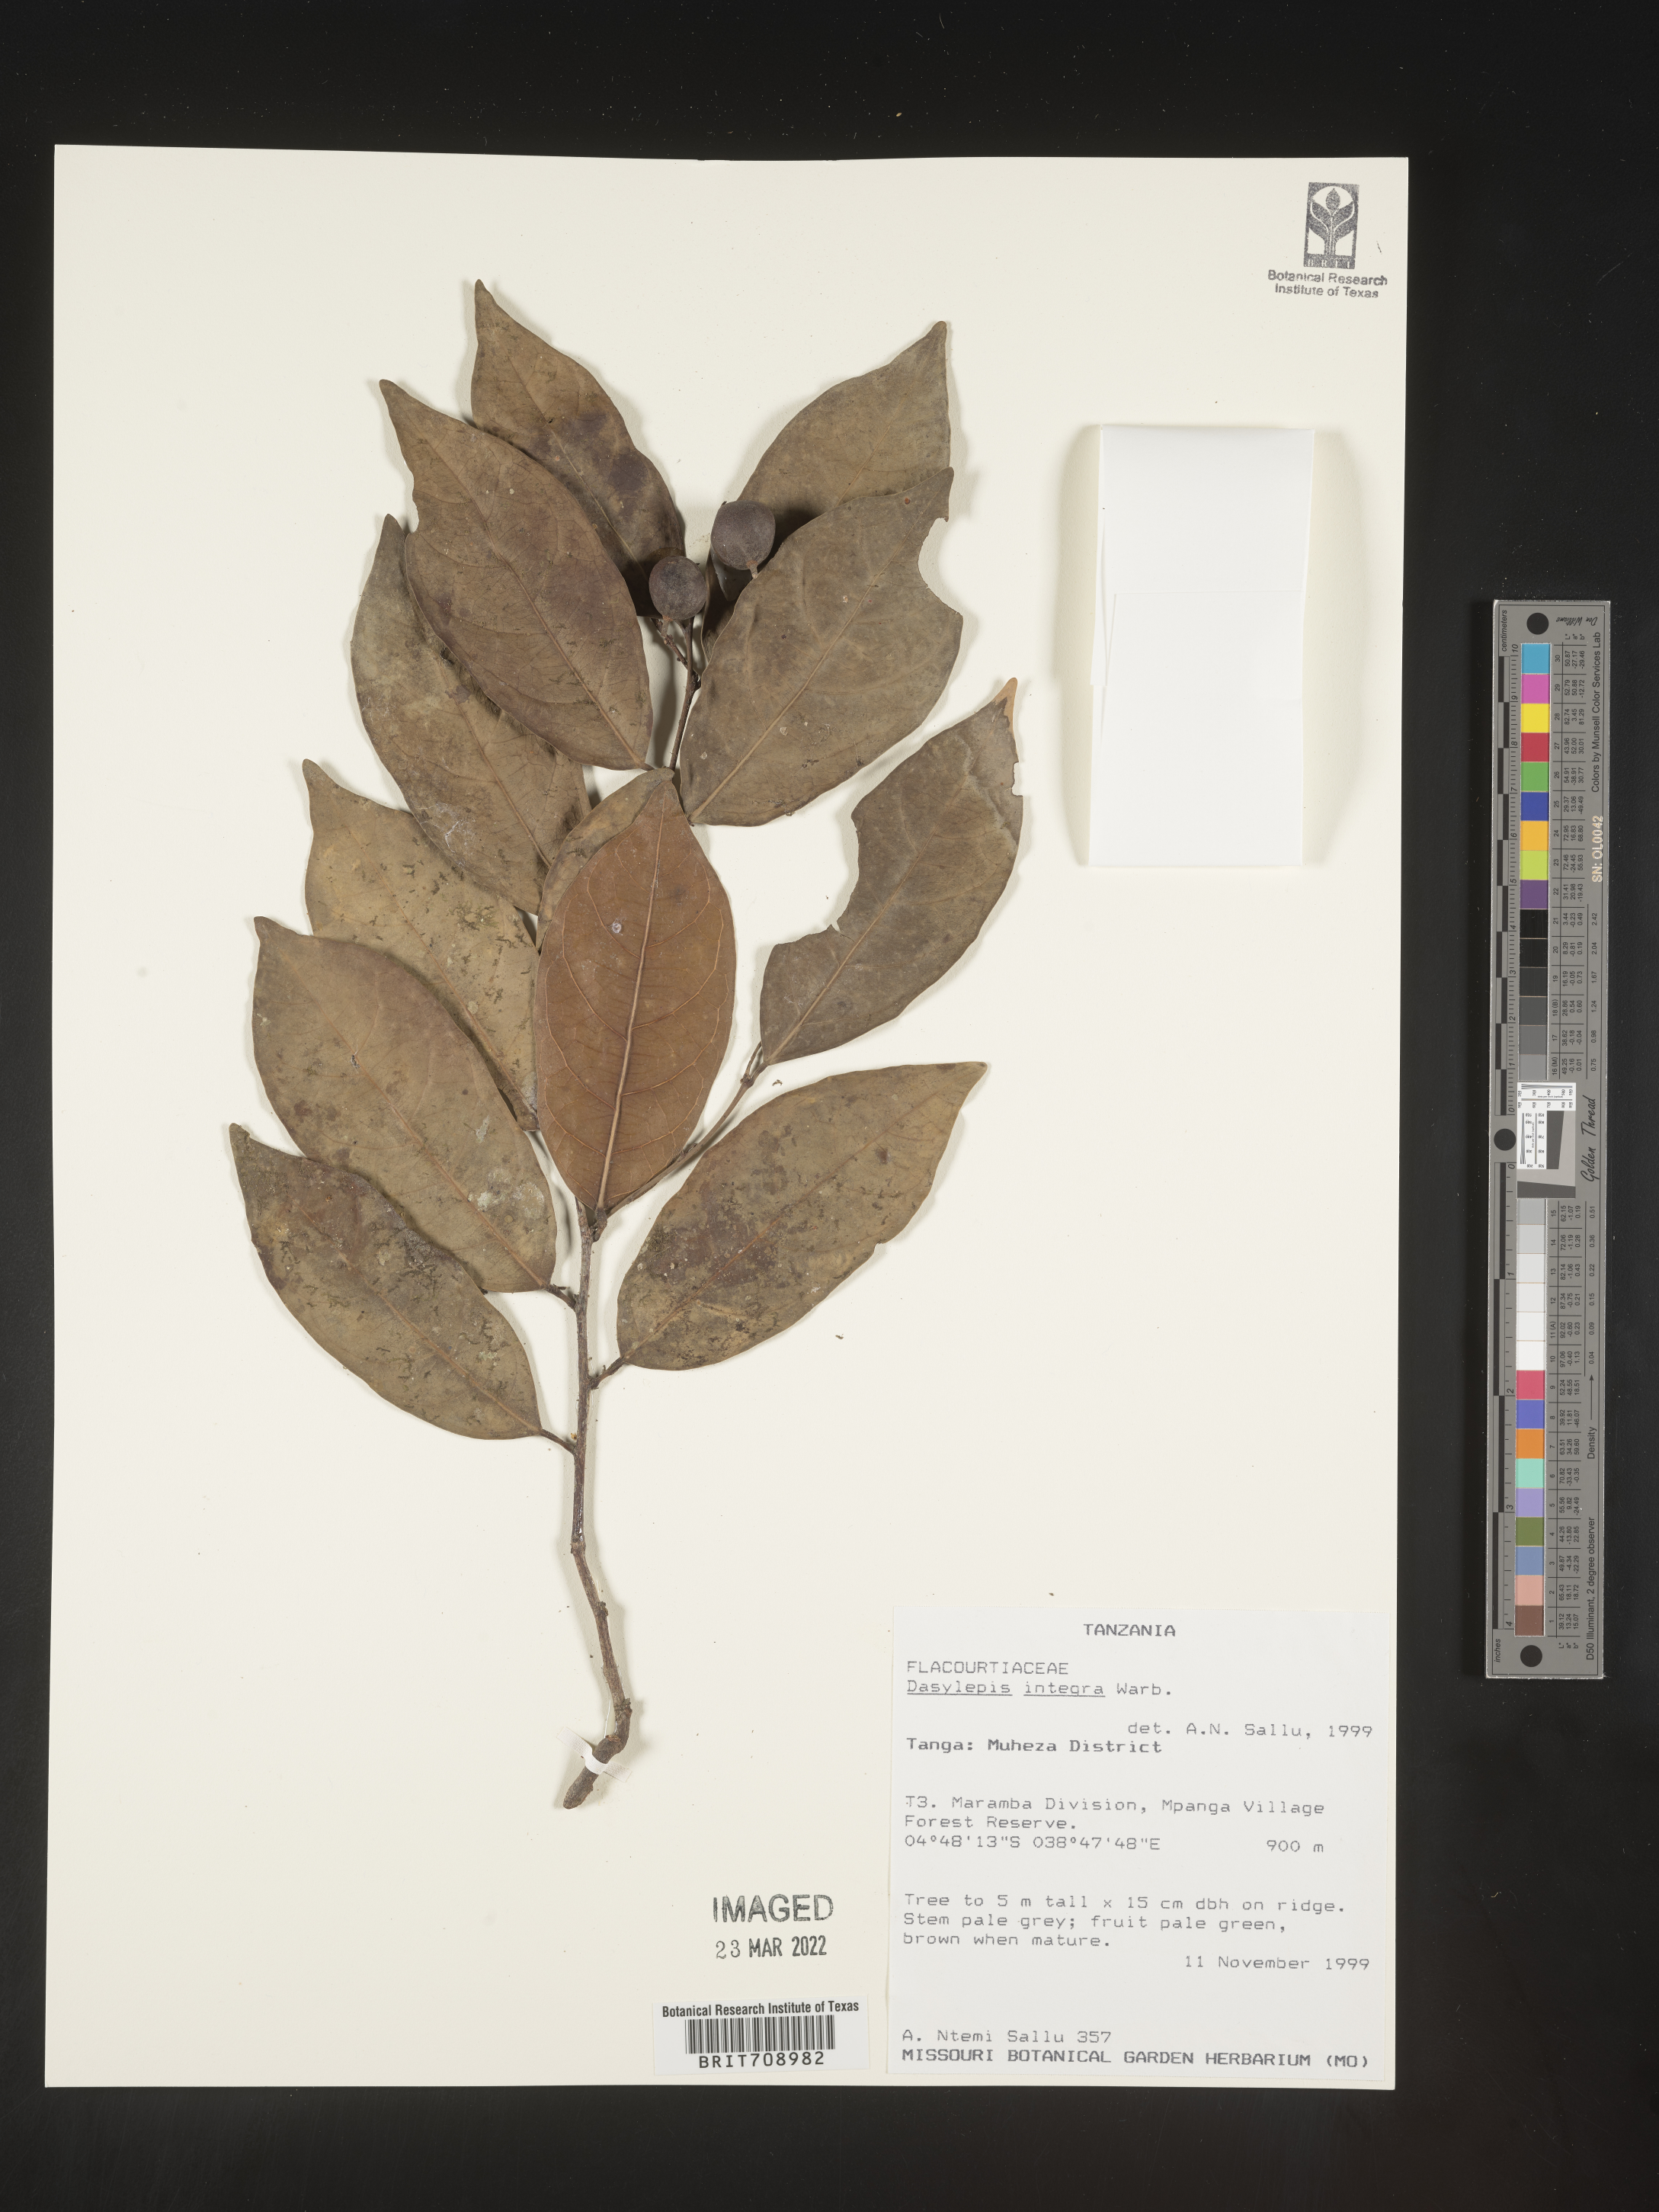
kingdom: Plantae
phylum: Tracheophyta
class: Magnoliopsida
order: Malpighiales
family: Achariaceae
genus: Dasylepis
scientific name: Dasylepis
